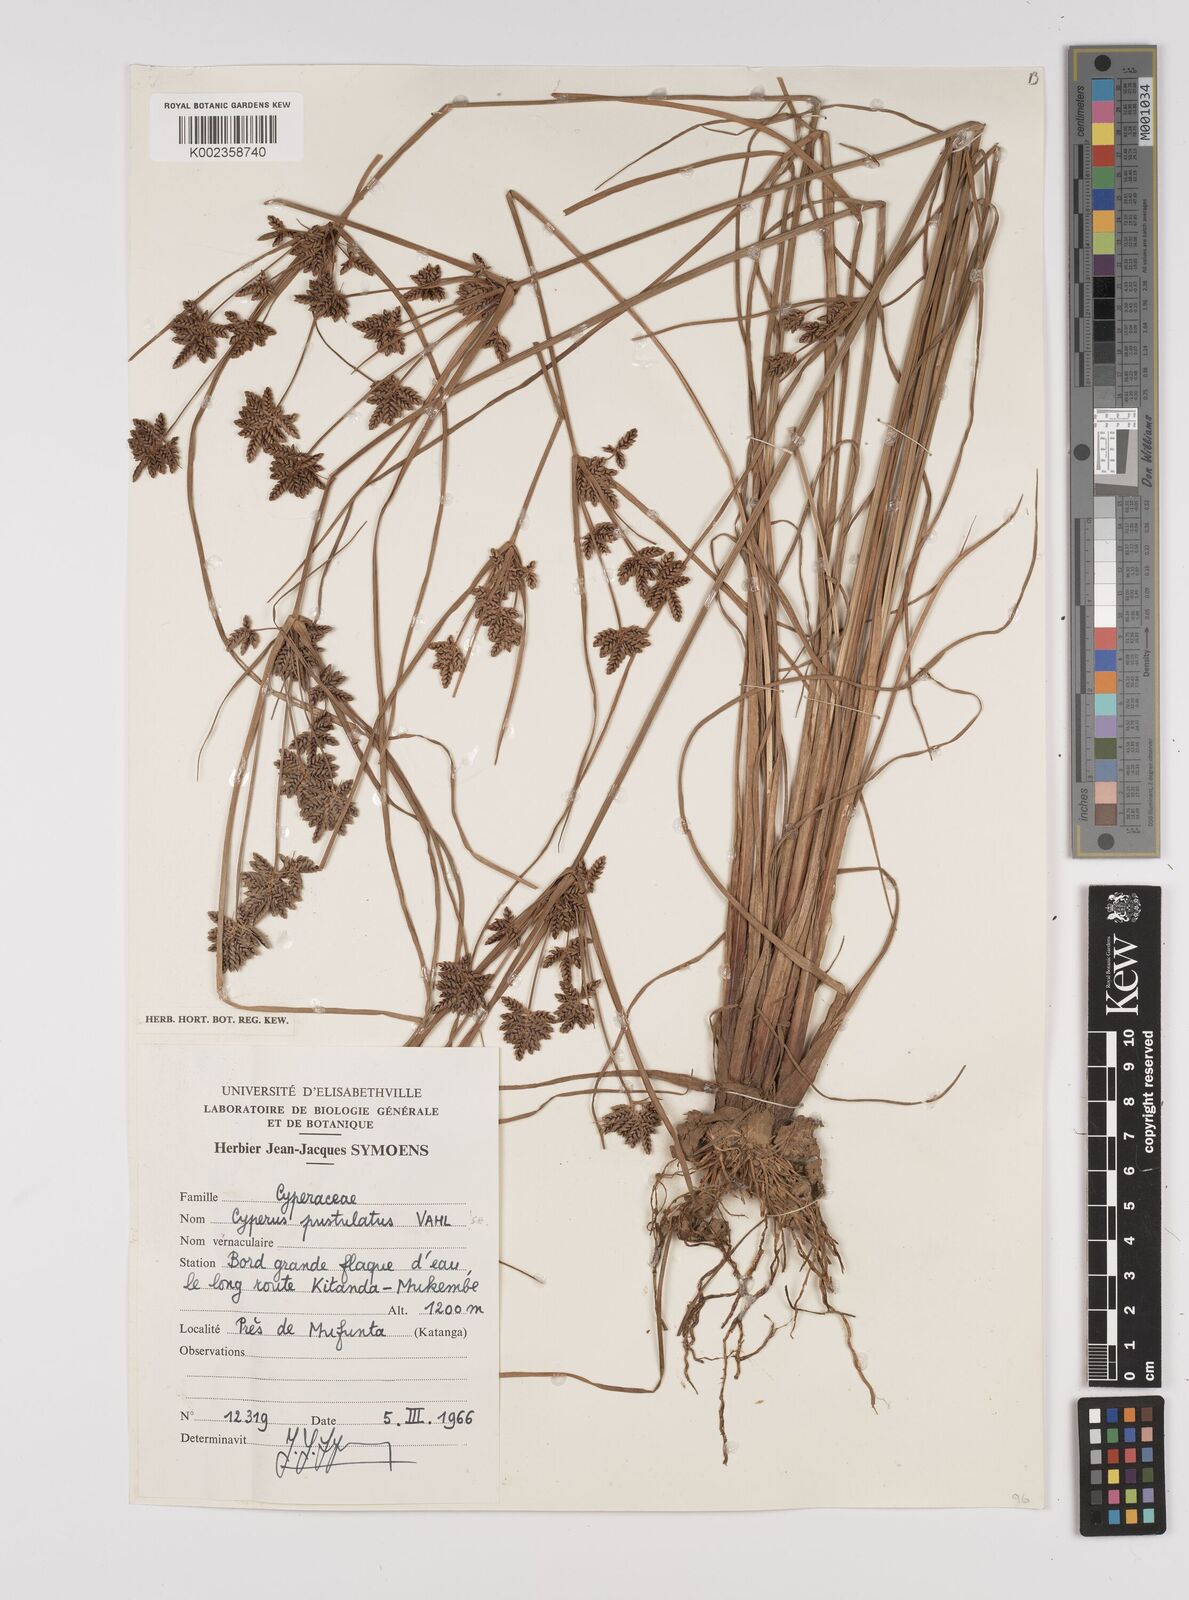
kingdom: Plantae
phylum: Tracheophyta
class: Liliopsida
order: Poales
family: Cyperaceae
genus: Cyperus
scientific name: Cyperus pustulatus
